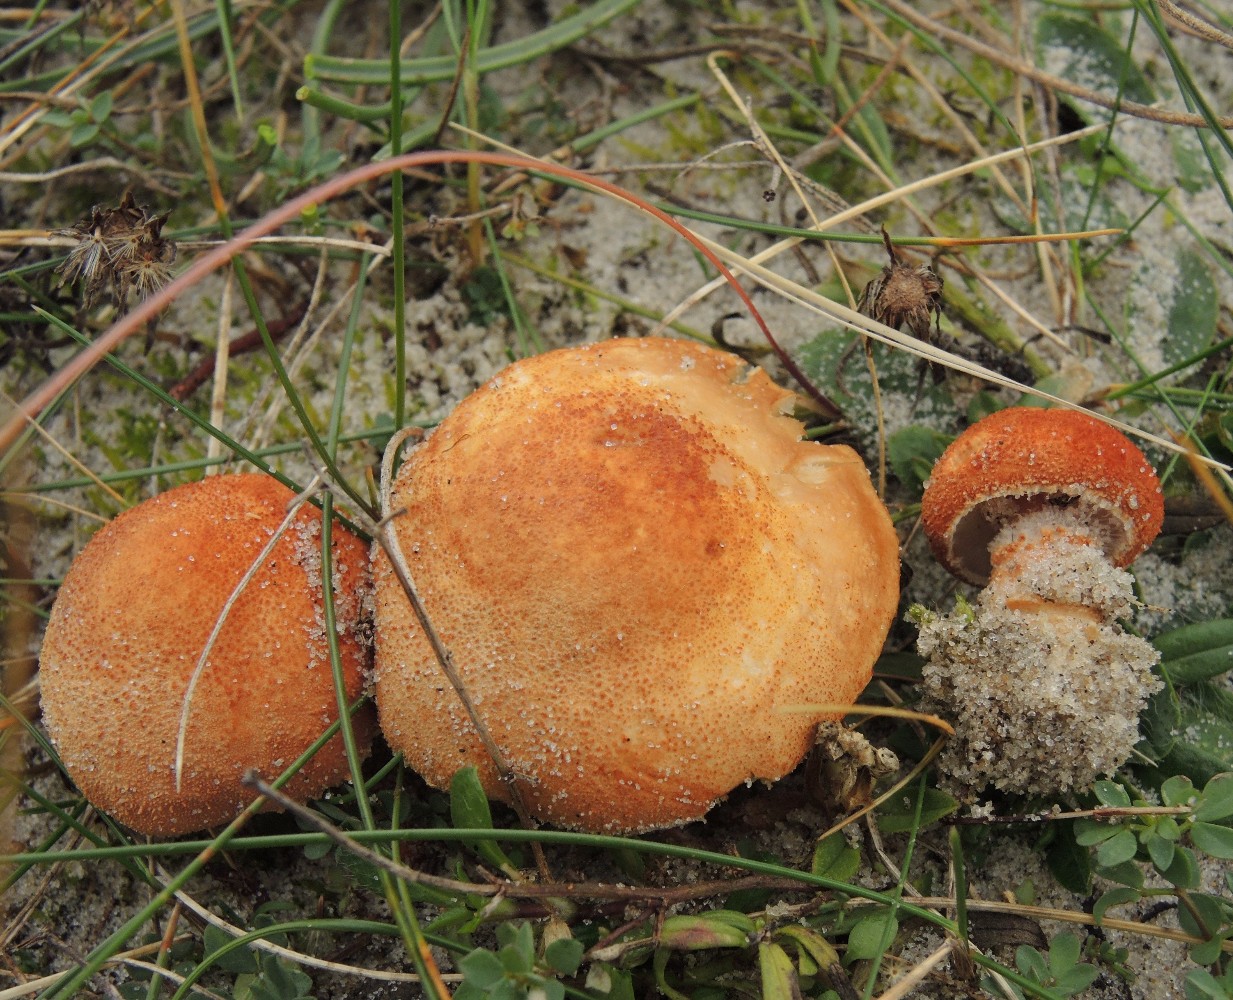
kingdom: Fungi
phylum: Basidiomycota
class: Agaricomycetes
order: Agaricales
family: Agaricaceae
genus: Cystodermella
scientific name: Cystodermella cinnabarina
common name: cinnober-grynhat
